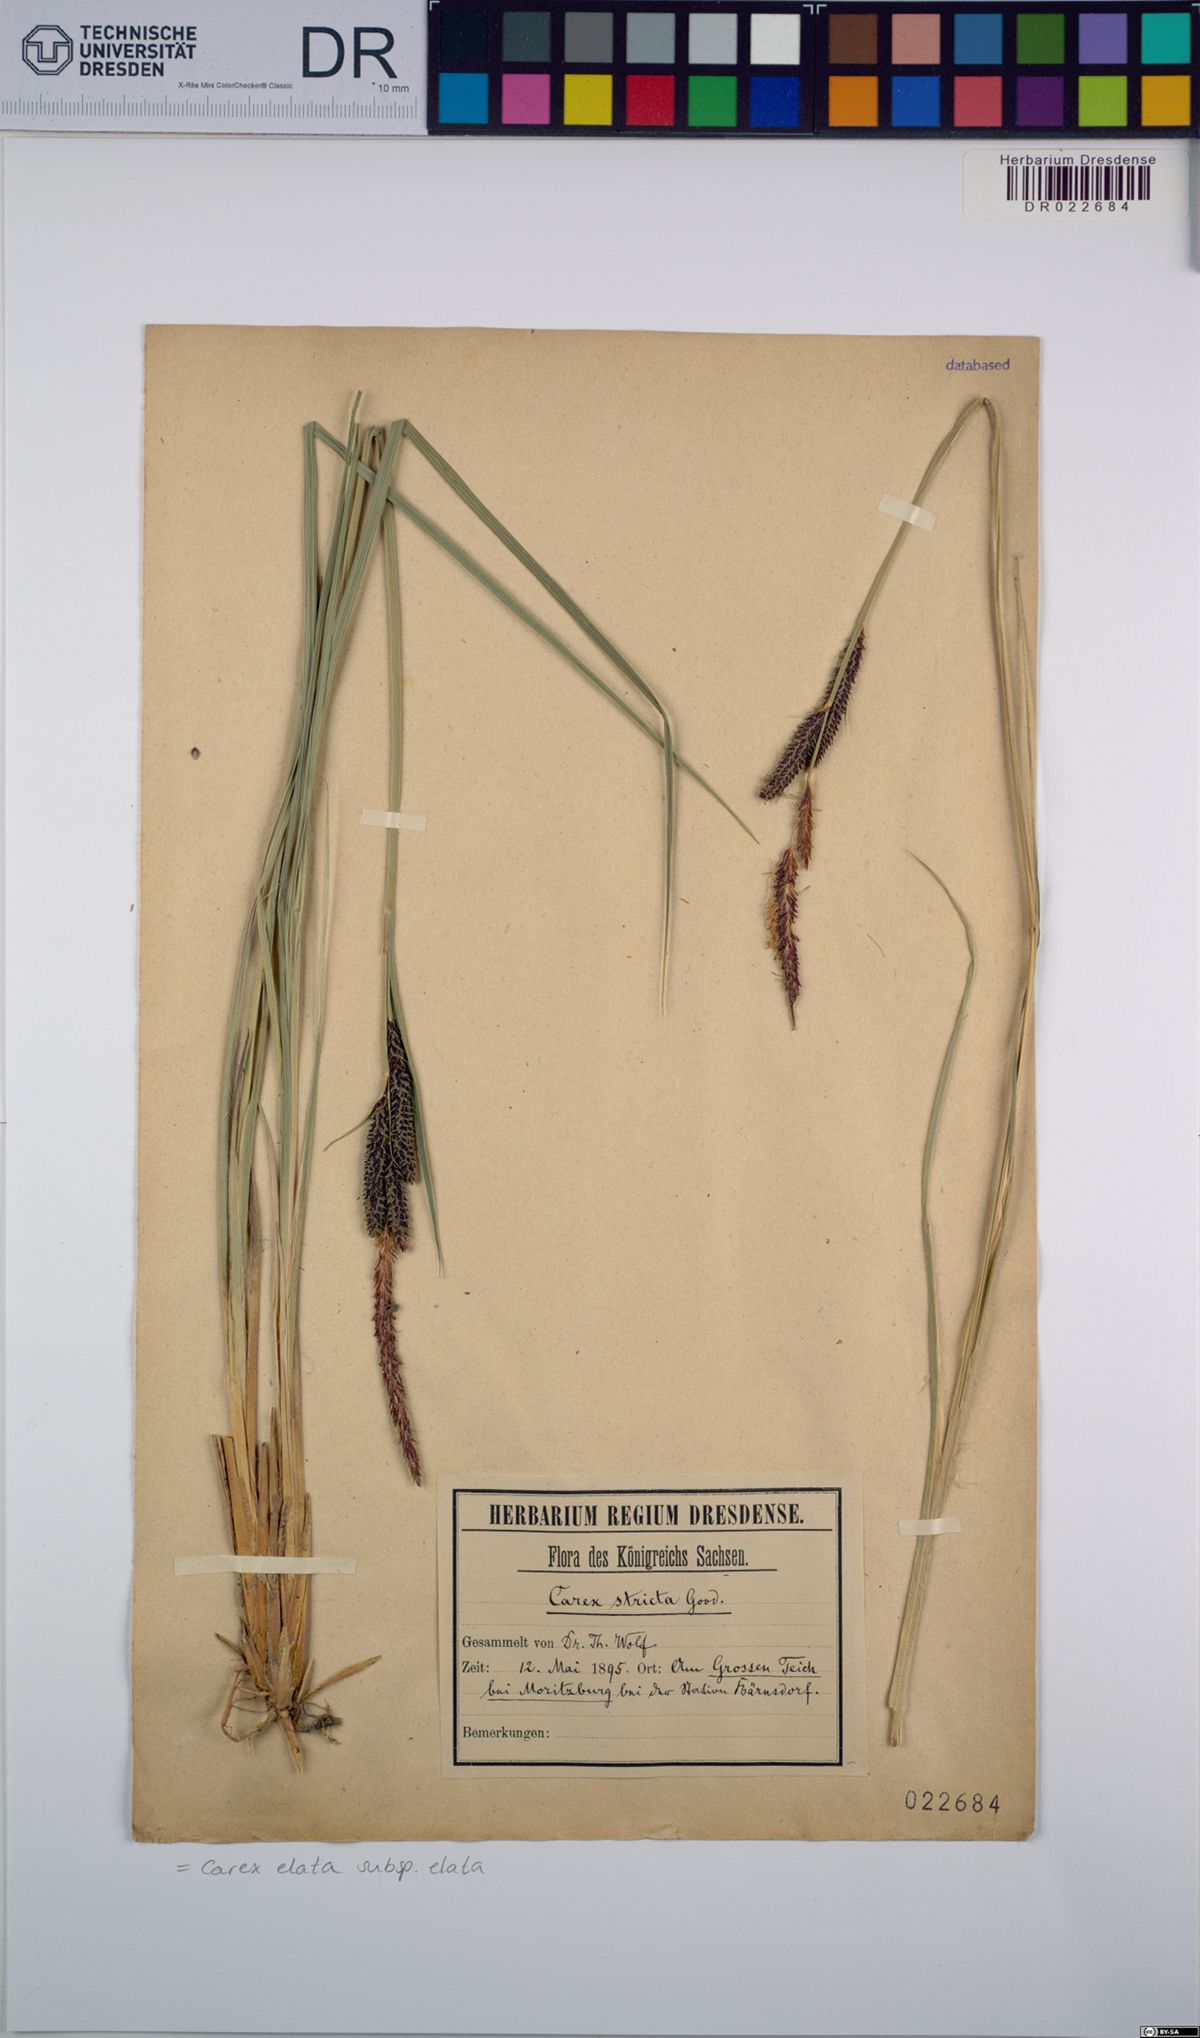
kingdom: Plantae
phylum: Tracheophyta
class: Liliopsida
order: Poales
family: Cyperaceae
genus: Carex
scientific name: Carex elata
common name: Tufted sedge
